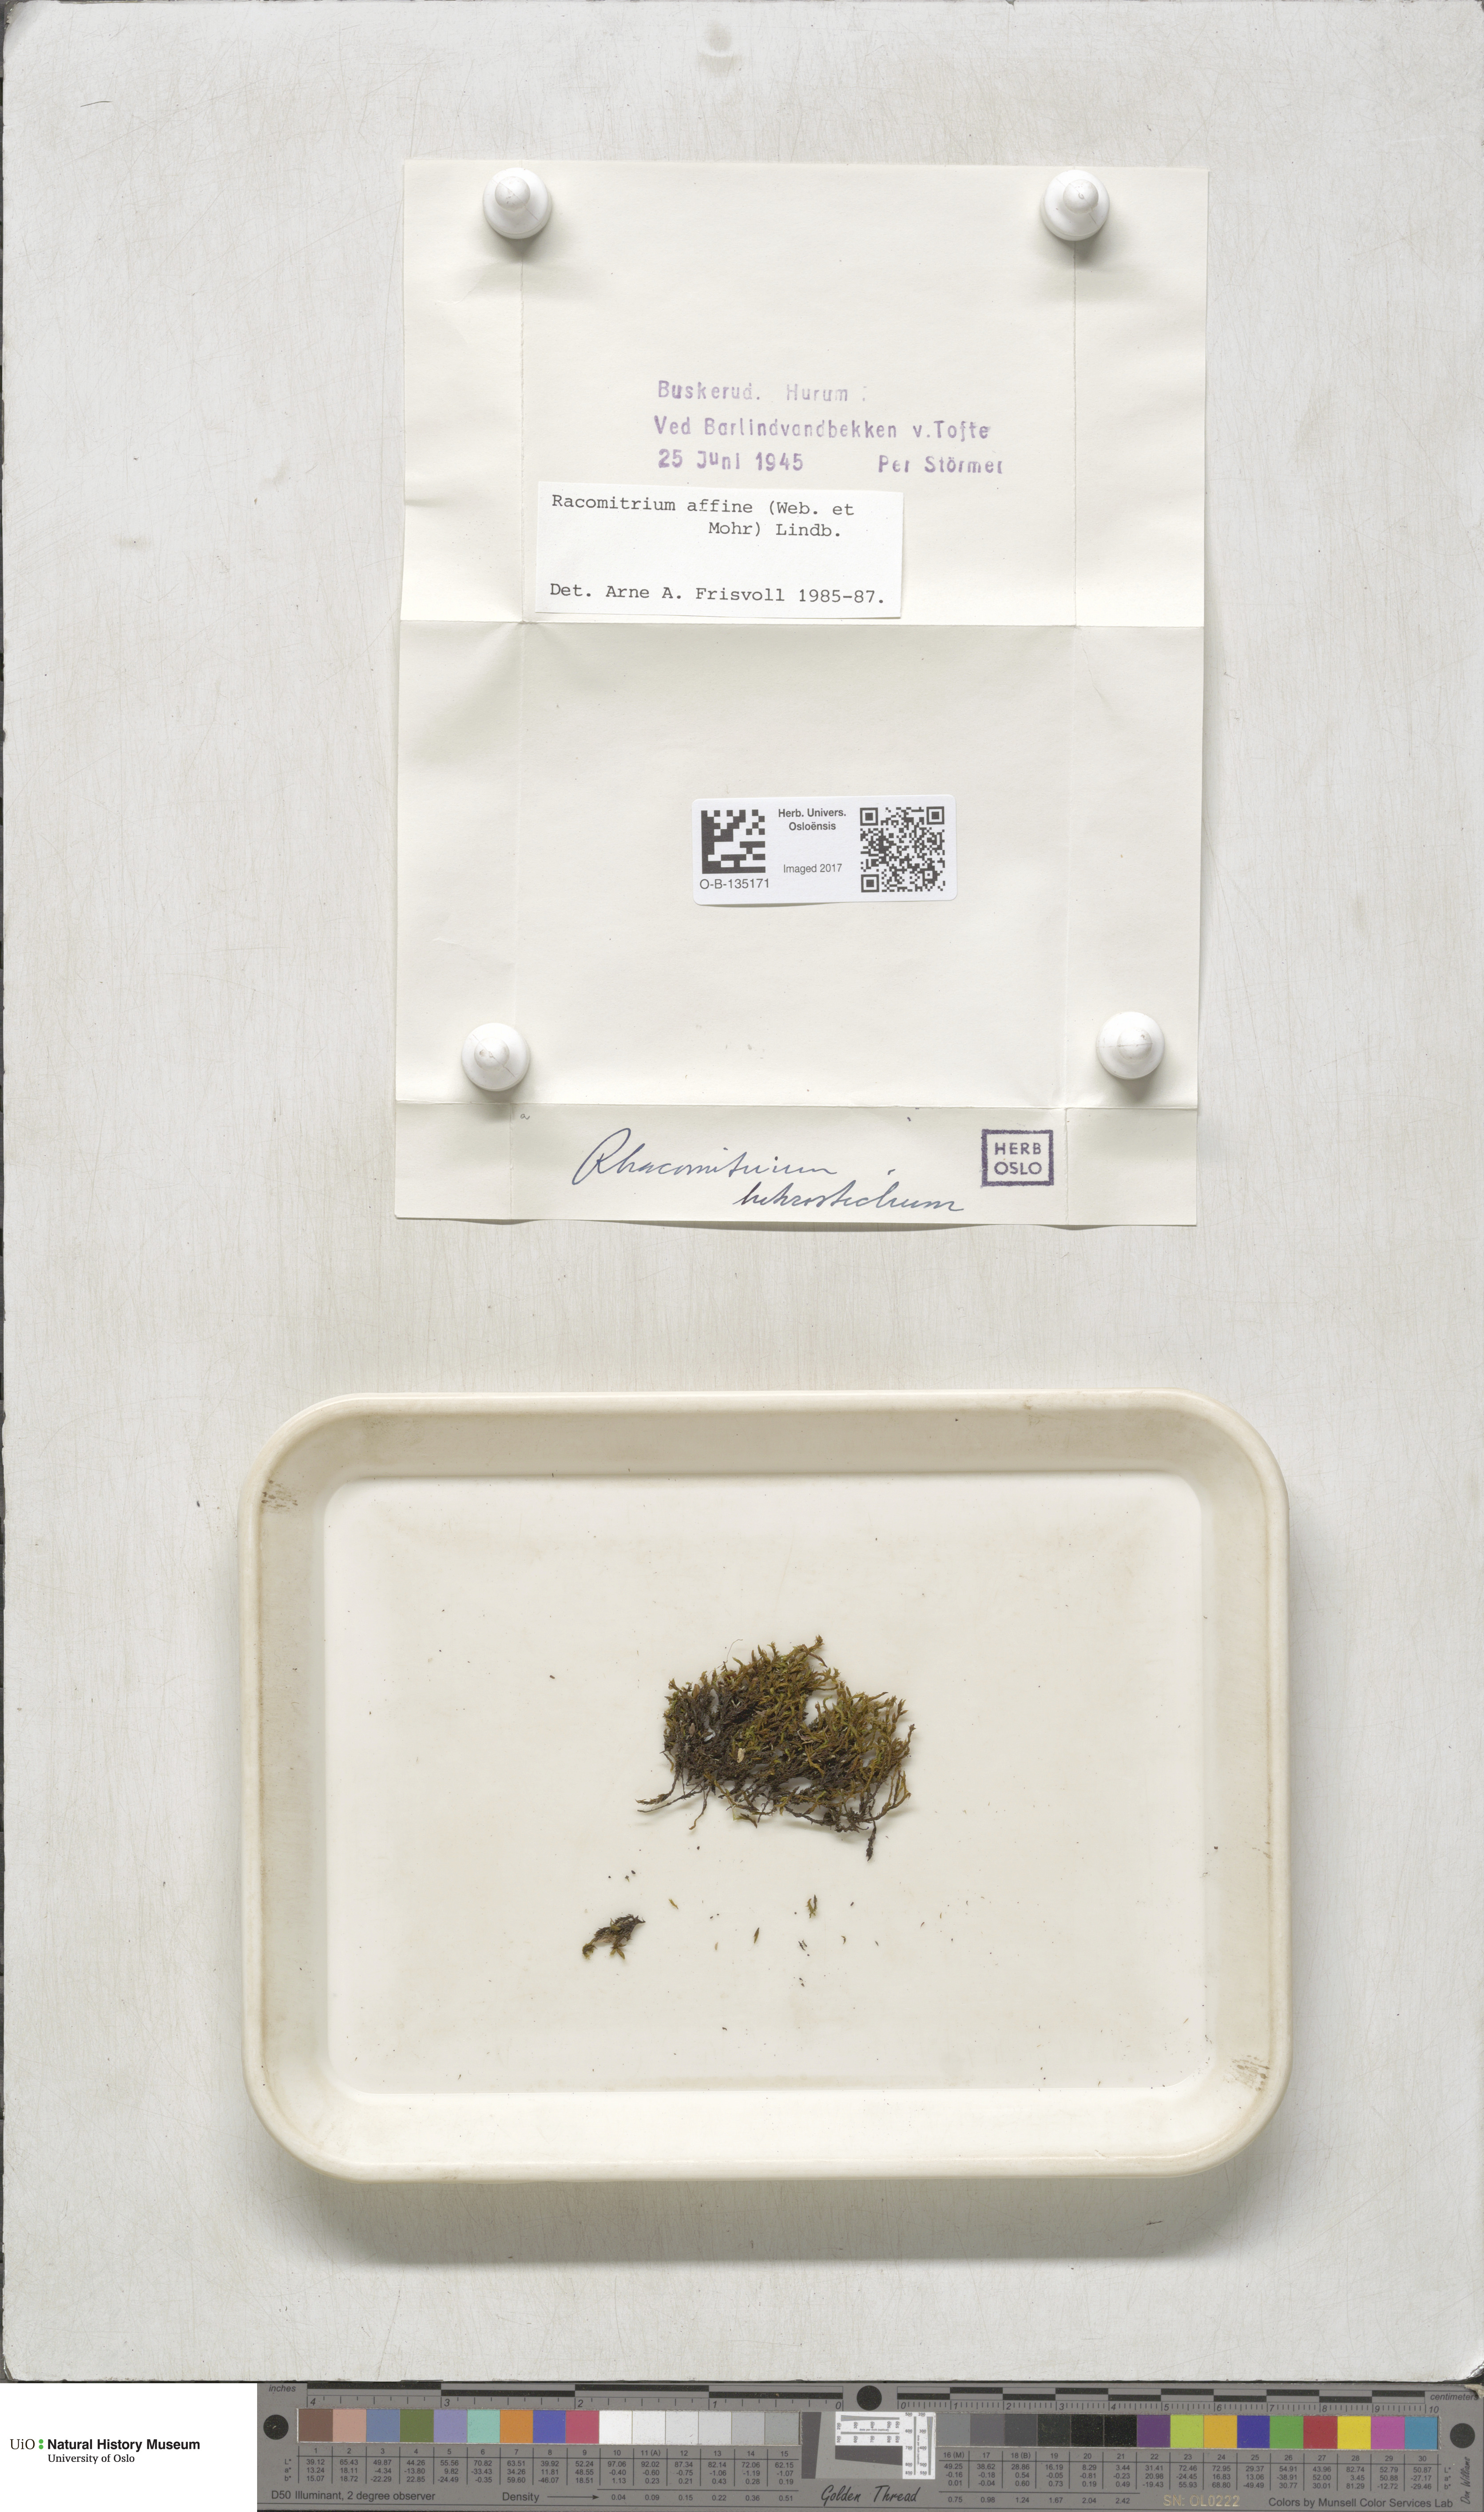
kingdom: Plantae
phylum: Bryophyta
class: Bryopsida
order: Grimmiales
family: Grimmiaceae
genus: Bucklandiella
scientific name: Bucklandiella affinis
